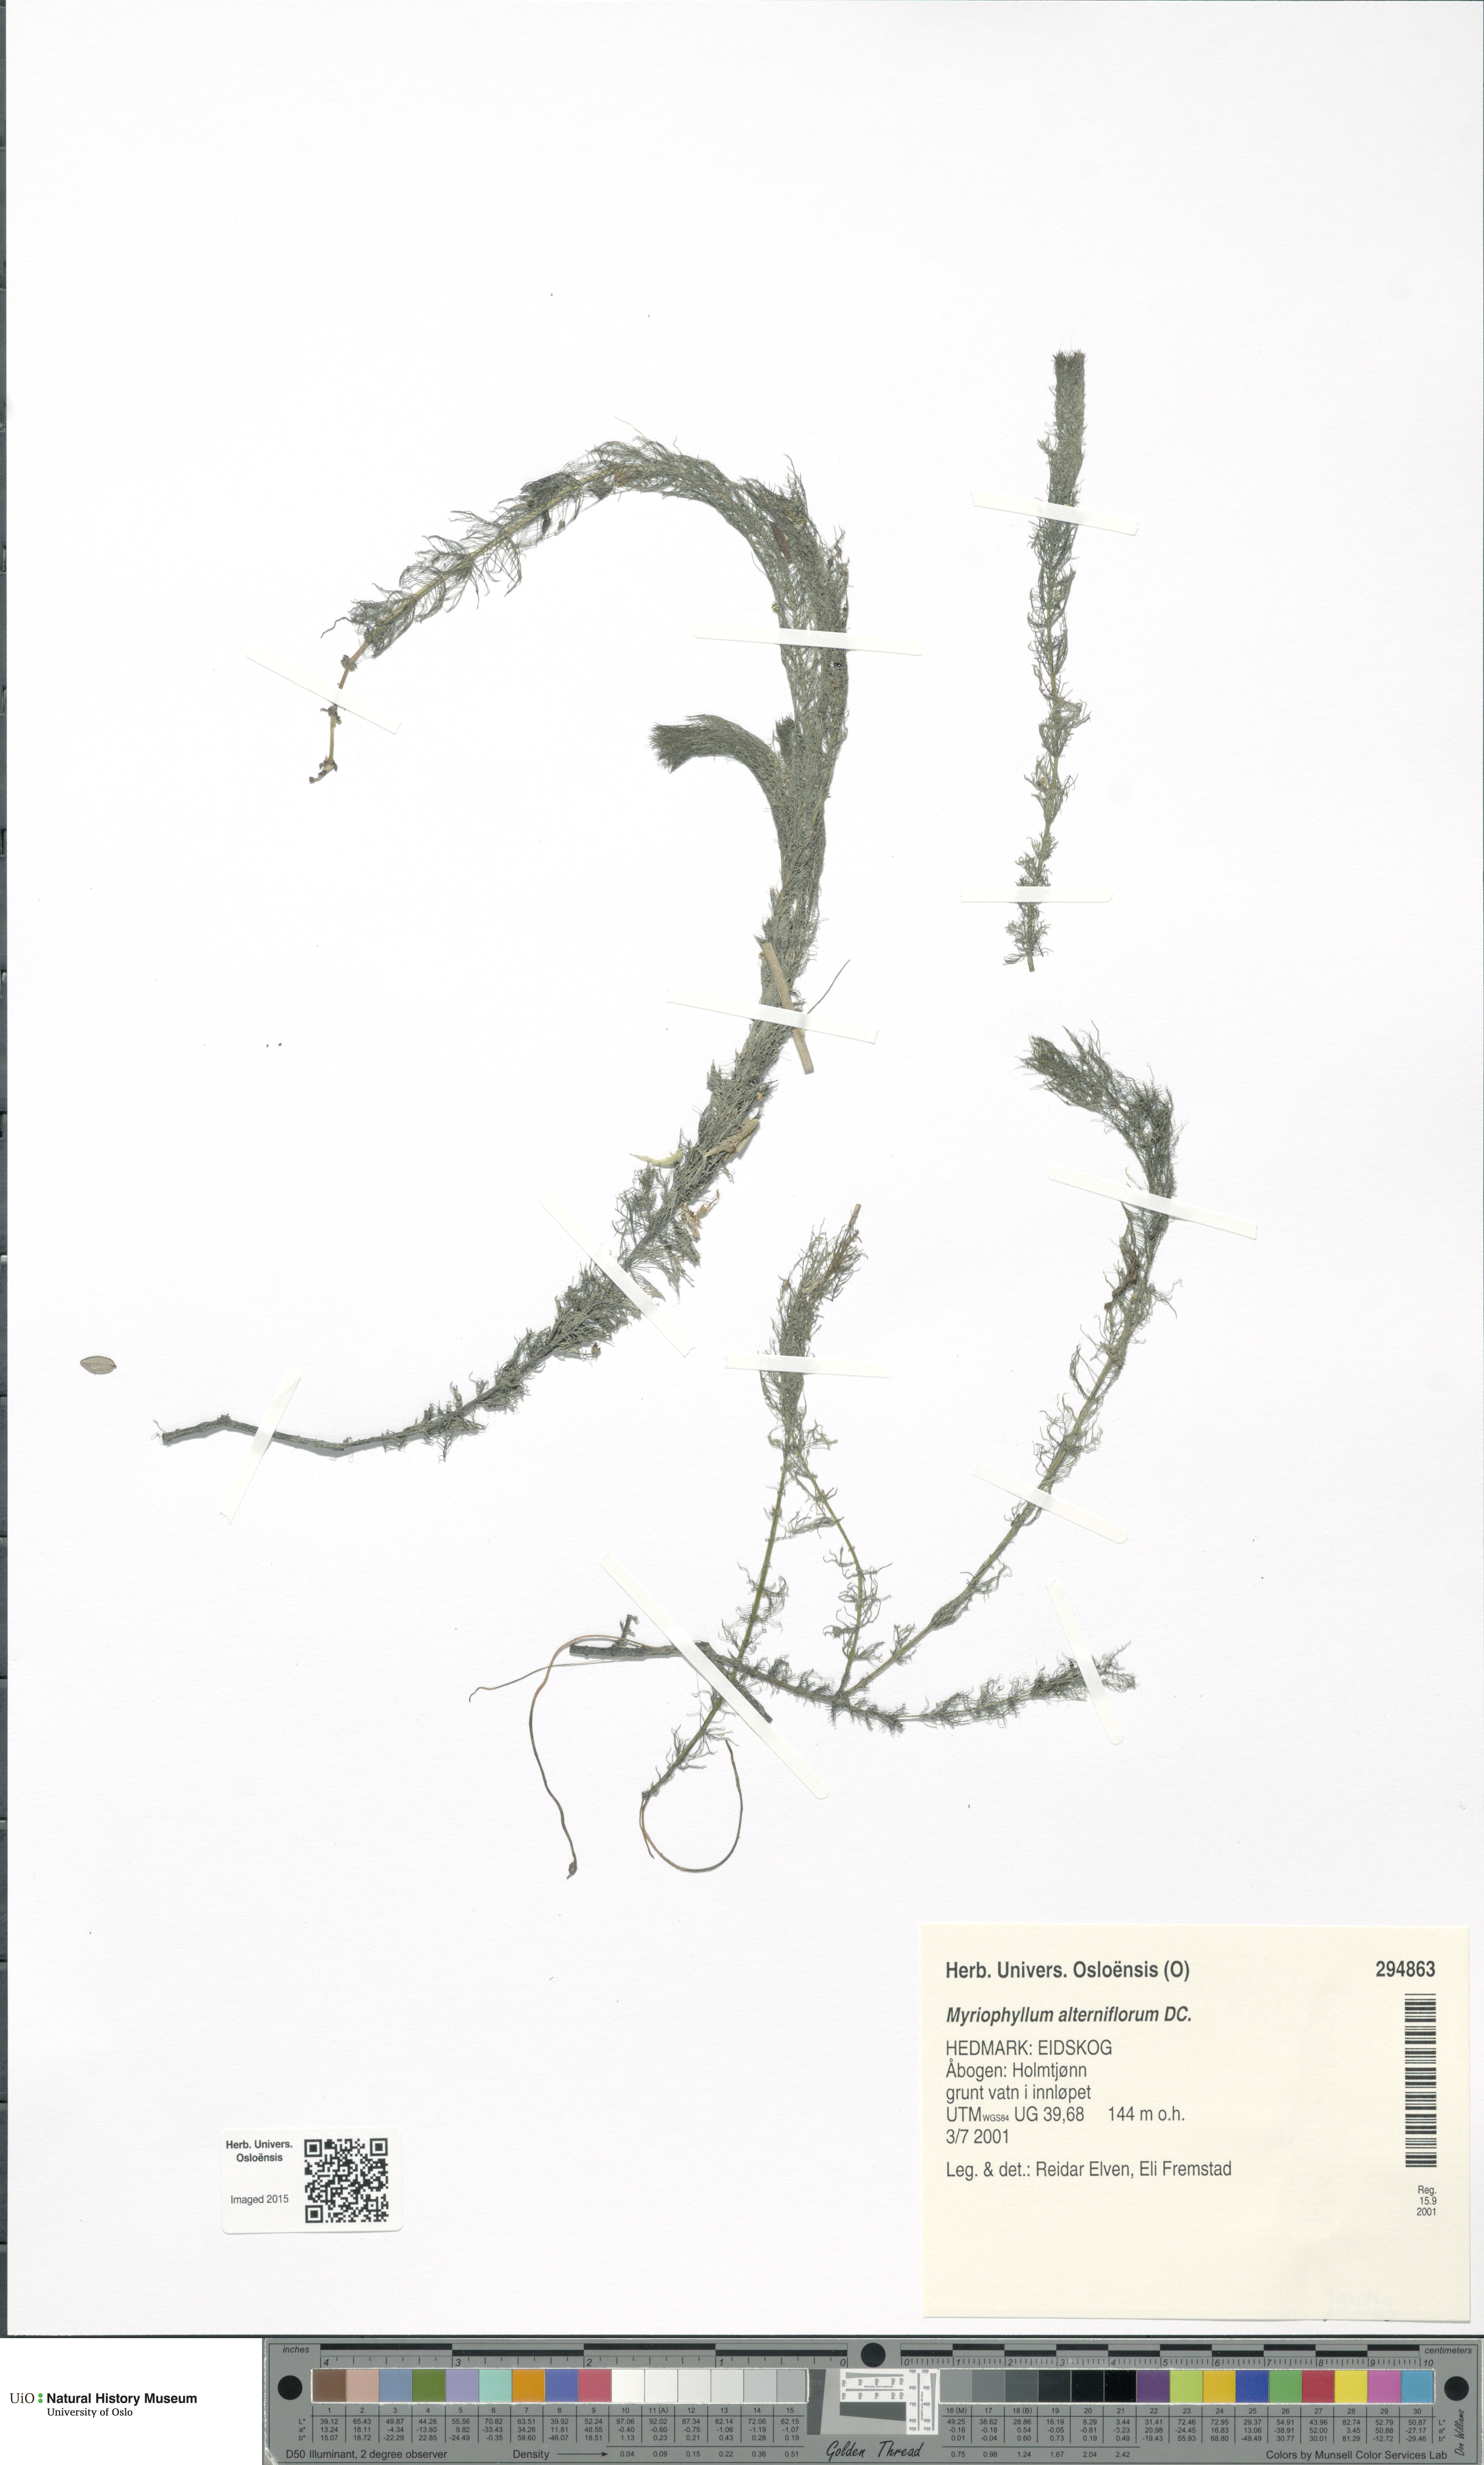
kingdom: Plantae
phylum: Tracheophyta
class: Magnoliopsida
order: Saxifragales
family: Haloragaceae
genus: Myriophyllum
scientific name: Myriophyllum alterniflorum
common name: Alternate water-milfoil
